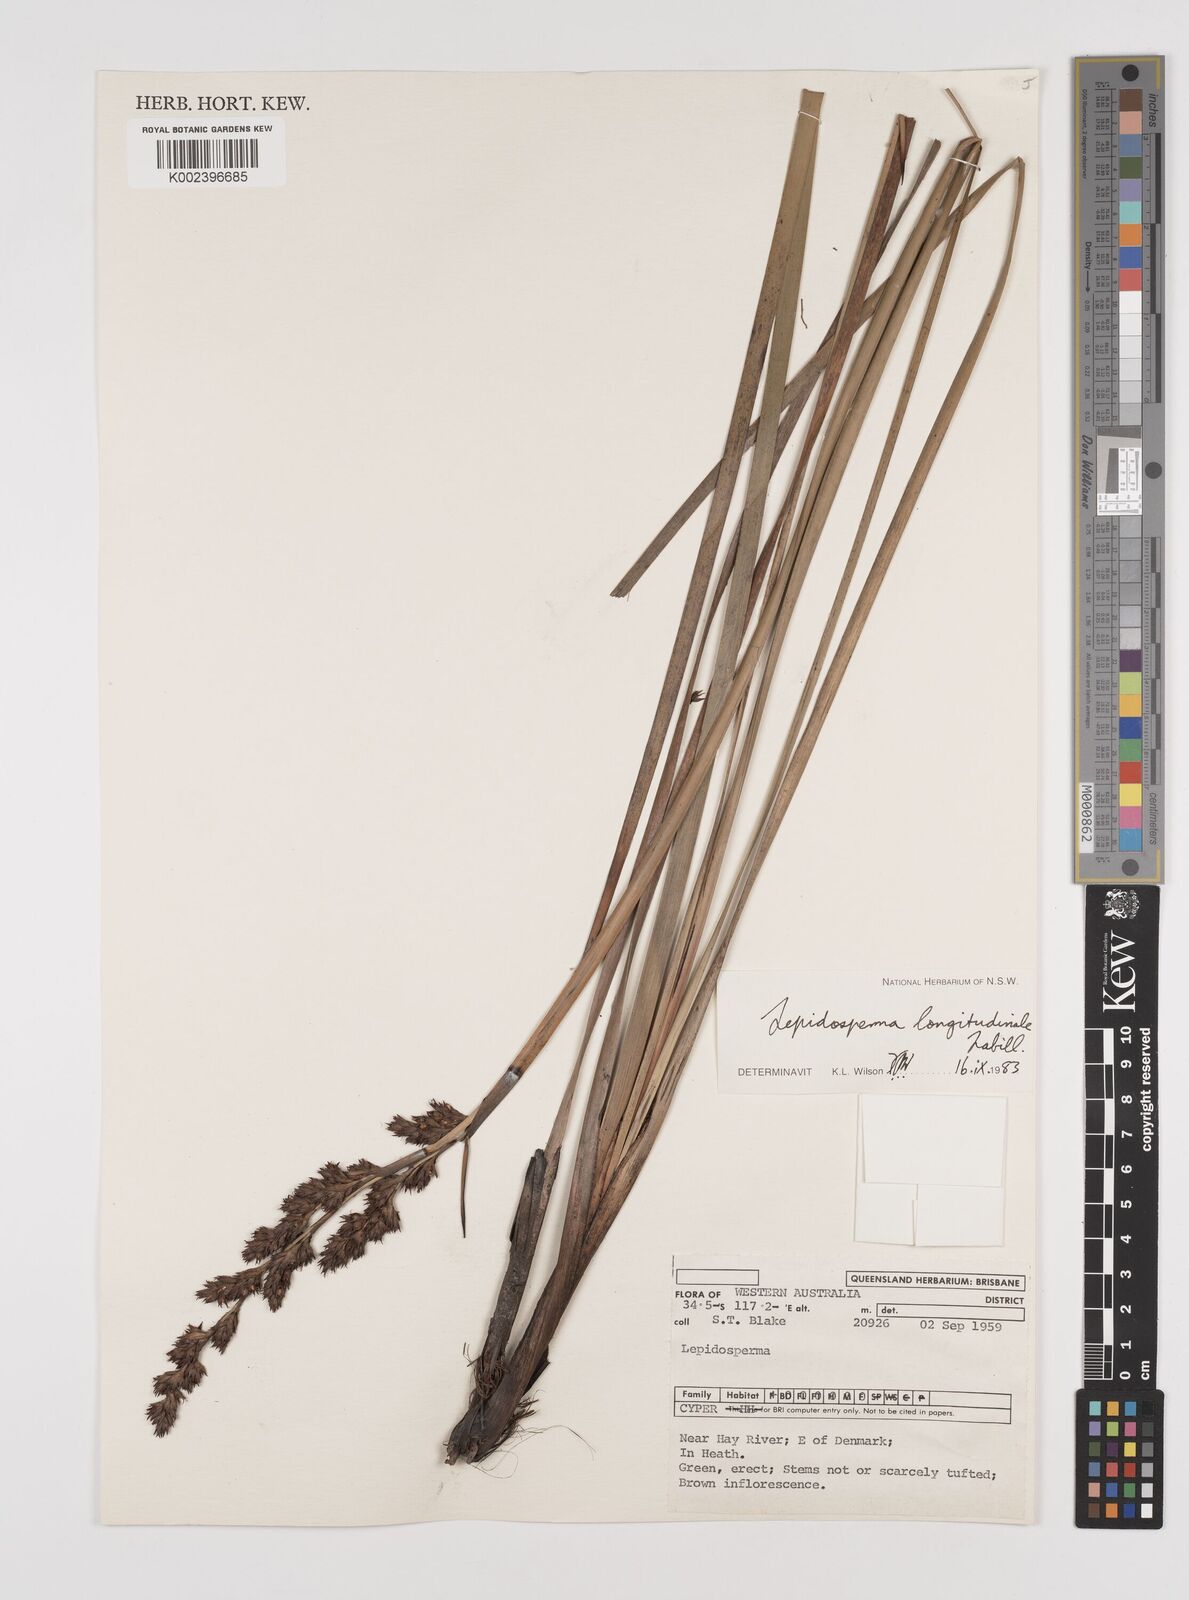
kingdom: Plantae
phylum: Tracheophyta
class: Liliopsida
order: Poales
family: Cyperaceae
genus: Lepidosperma
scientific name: Lepidosperma longitudinale
